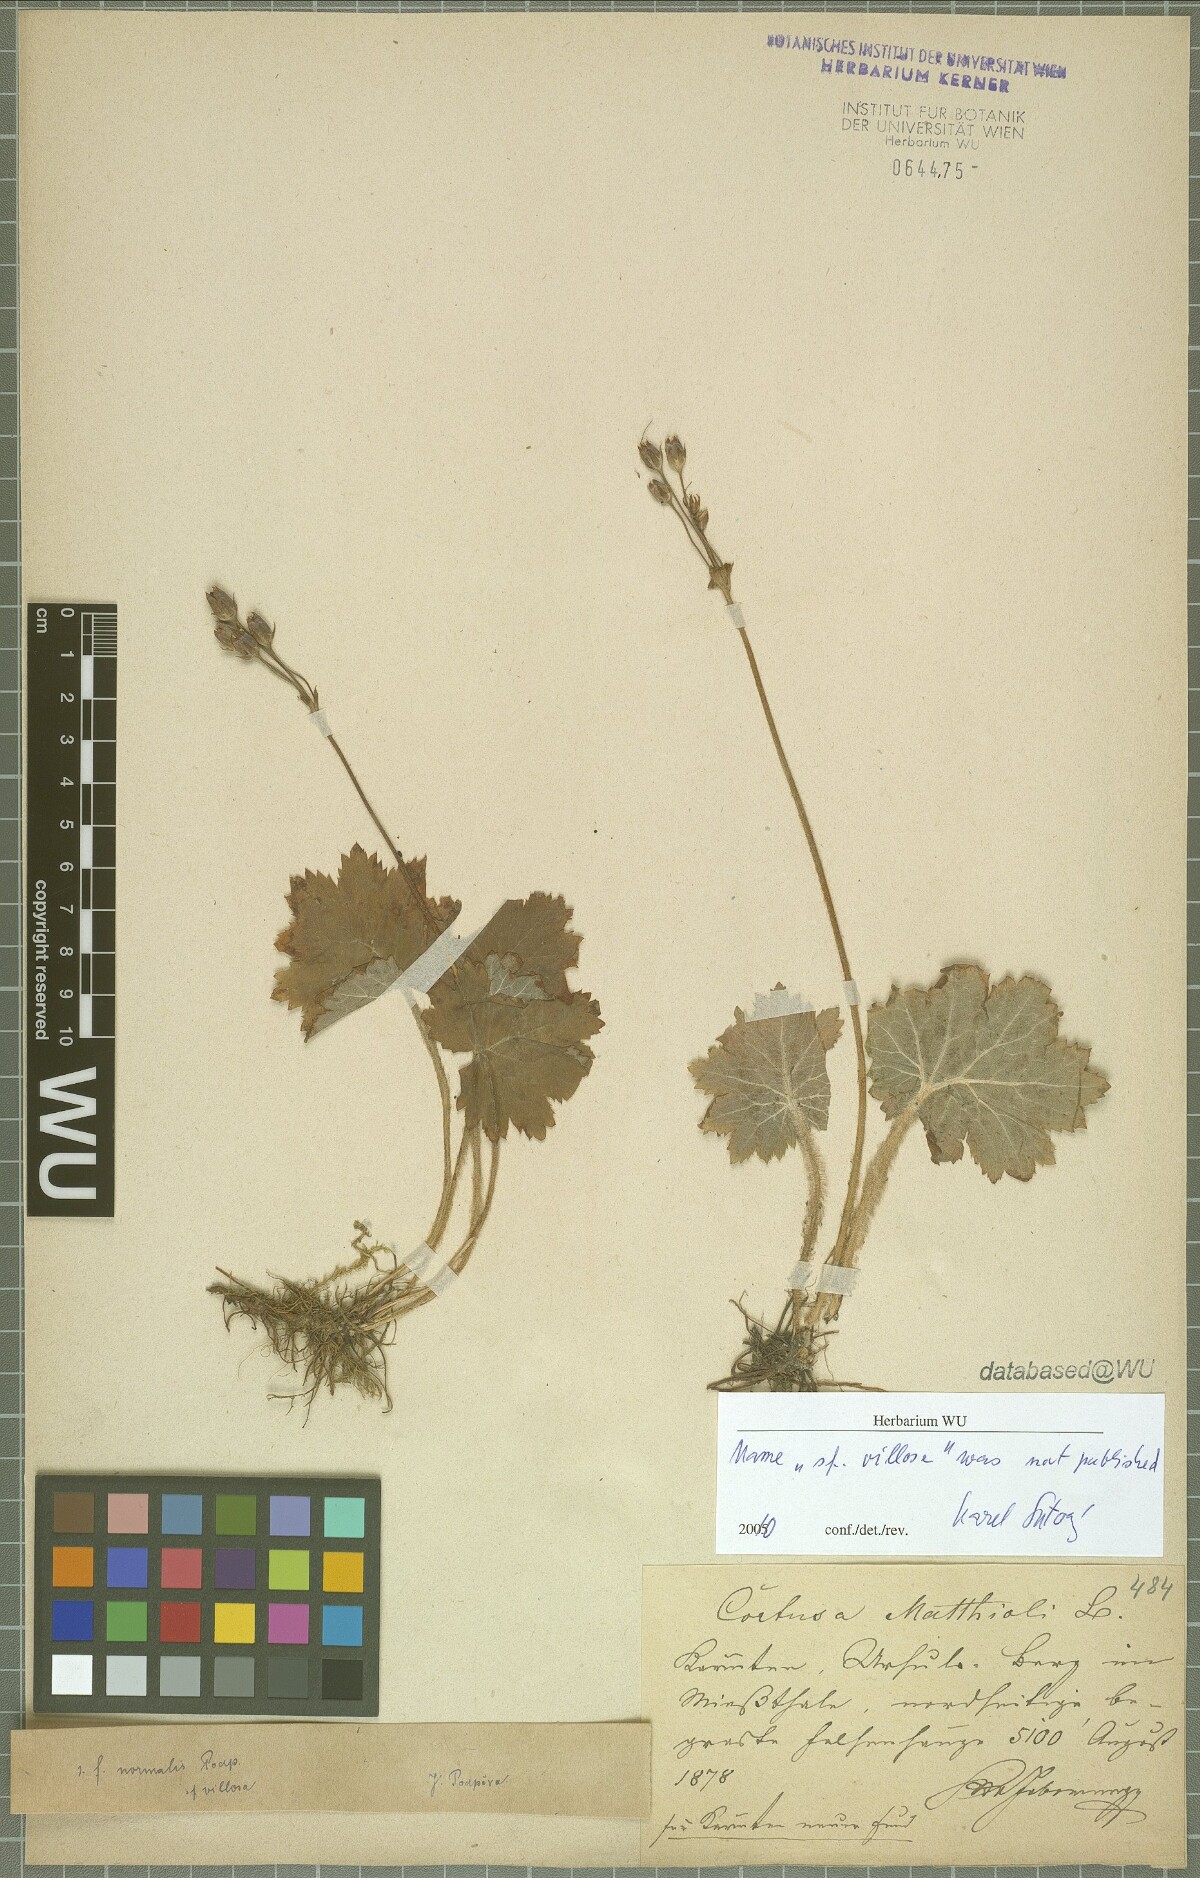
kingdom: Plantae
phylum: Tracheophyta
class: Magnoliopsida
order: Ericales
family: Primulaceae
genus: Primula
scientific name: Primula matthioli
